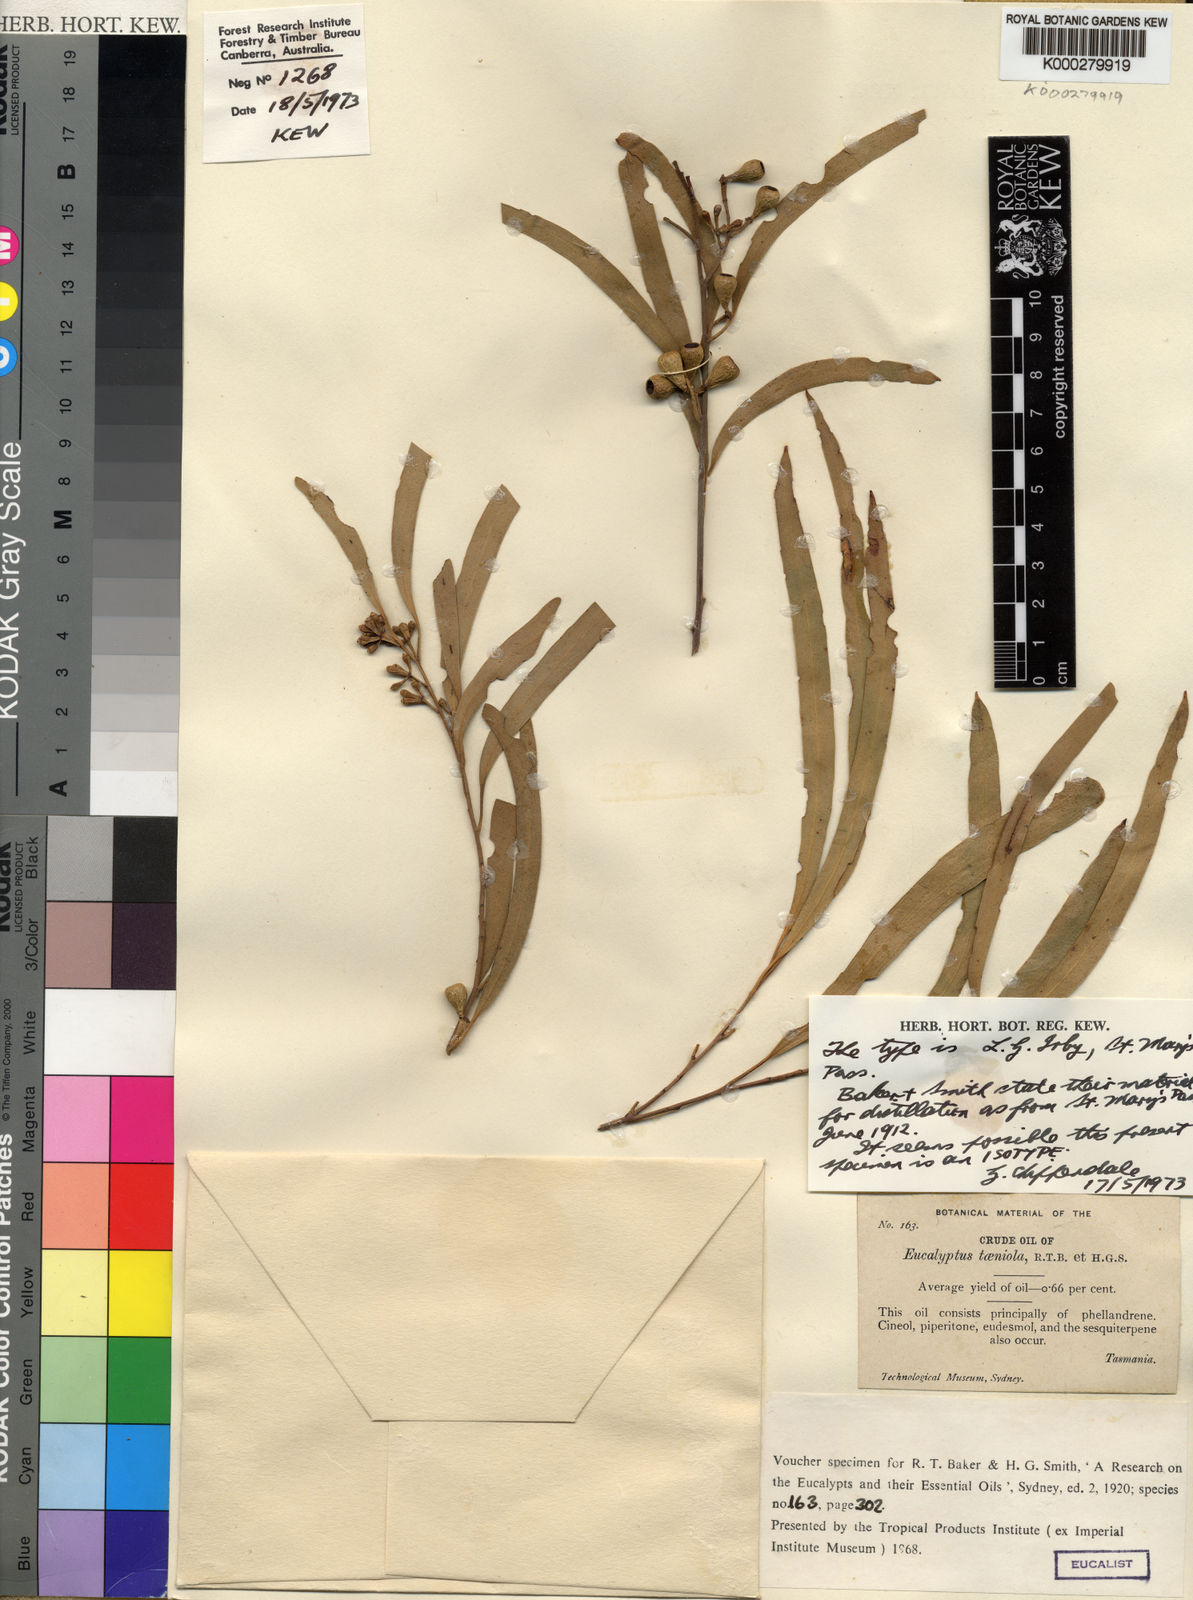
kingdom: Plantae
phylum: Tracheophyta
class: Magnoliopsida
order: Myrtales
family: Myrtaceae
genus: Eucalyptus
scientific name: Eucalyptus taeniola
